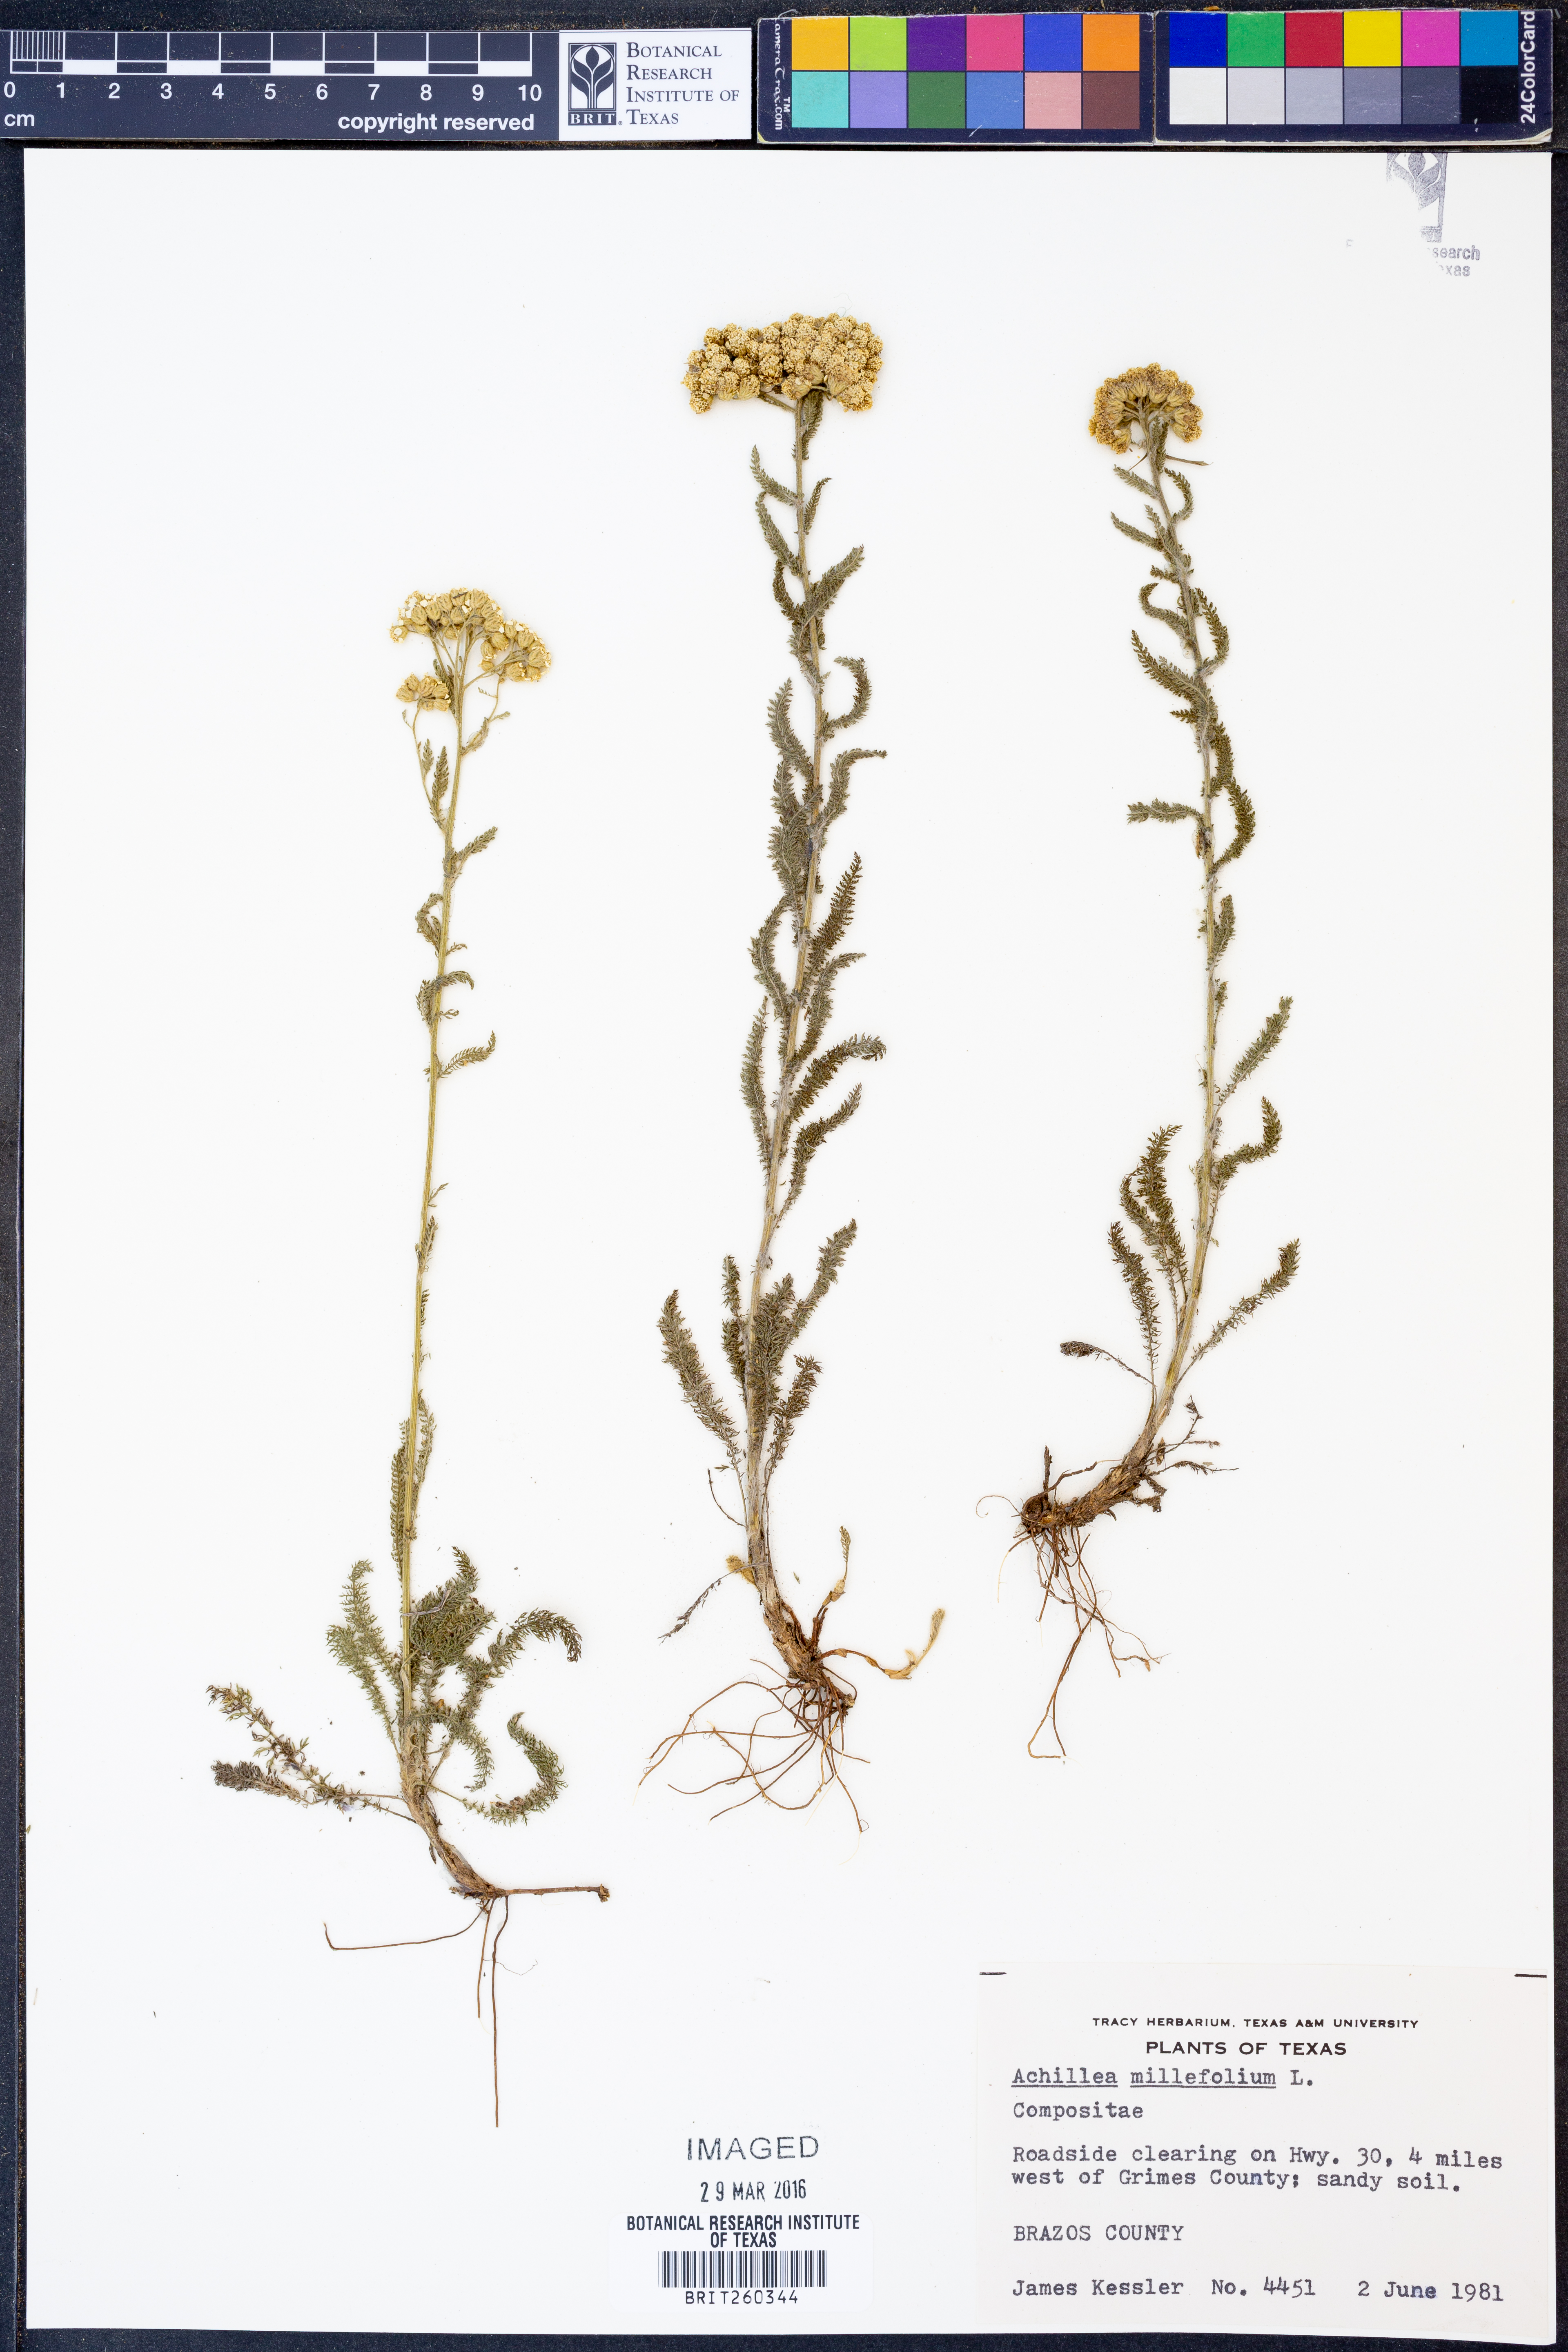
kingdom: Plantae
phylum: Tracheophyta
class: Magnoliopsida
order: Asterales
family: Asteraceae
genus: Achillea
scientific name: Achillea millefolium
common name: Yarrow
